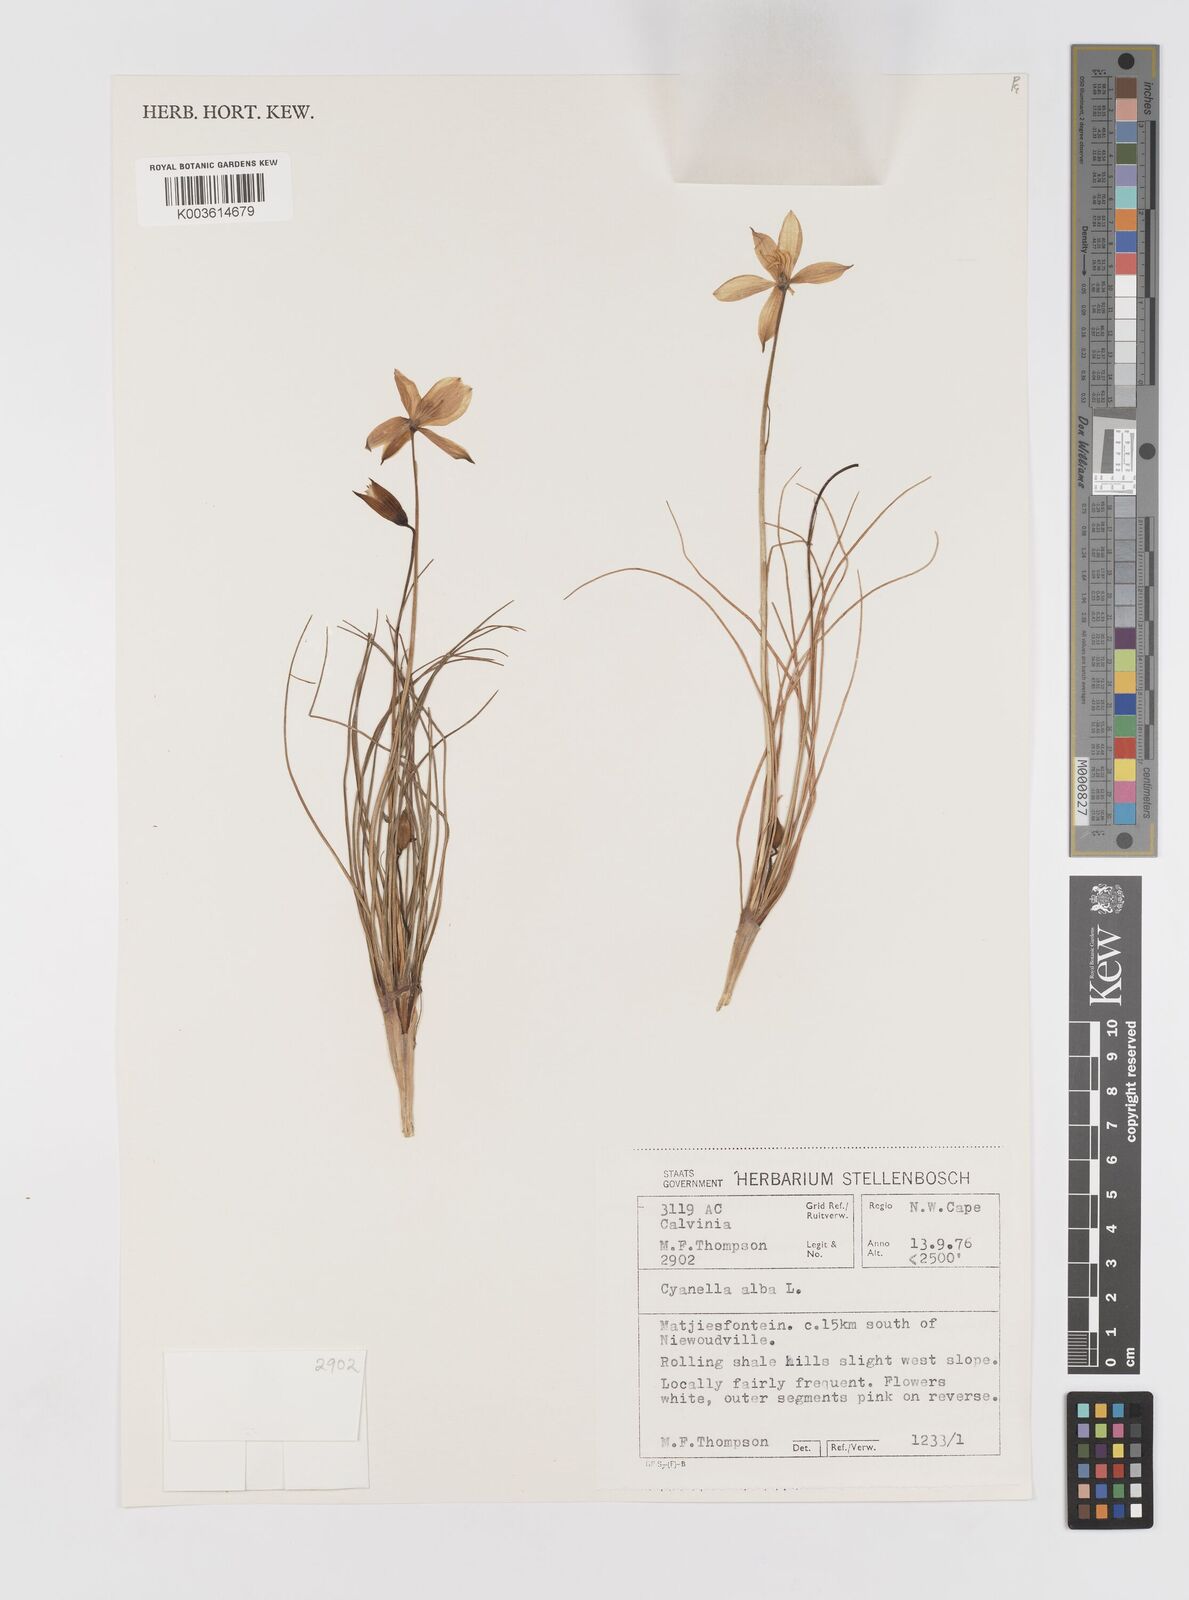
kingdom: Plantae
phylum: Tracheophyta
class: Liliopsida
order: Asparagales
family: Tecophilaeaceae
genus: Cyanella
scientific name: Cyanella alba
